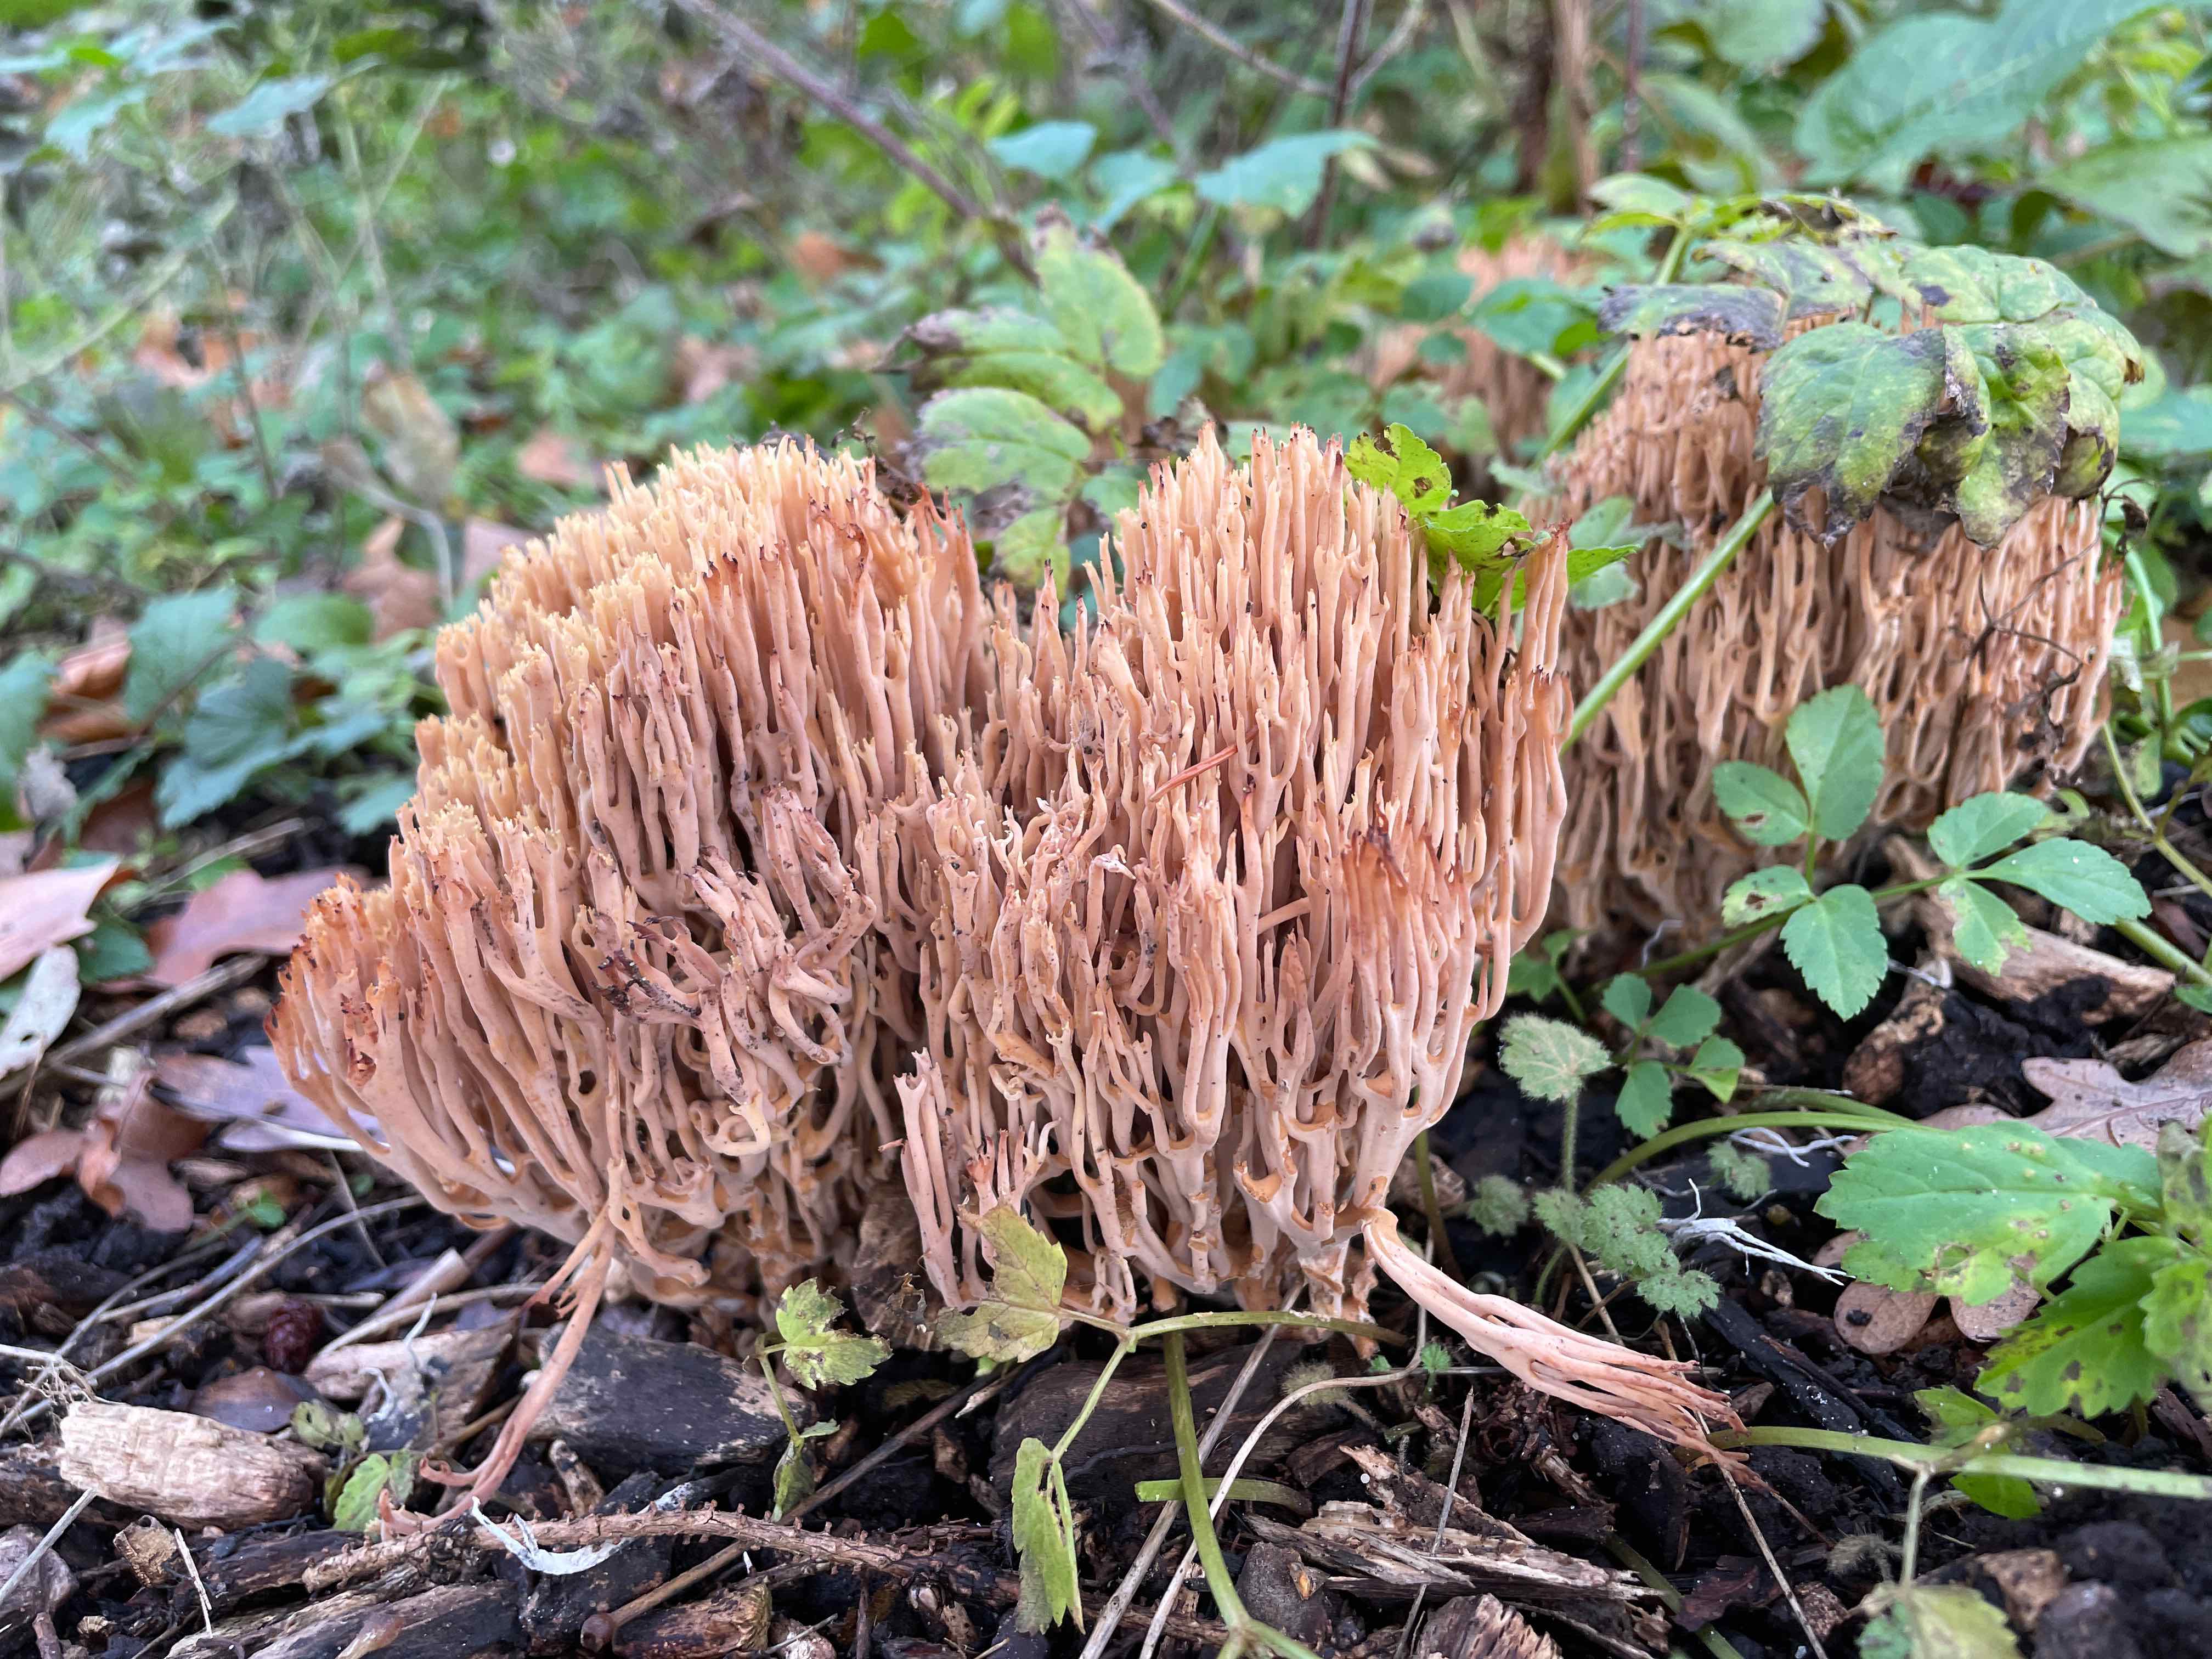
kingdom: Fungi
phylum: Basidiomycota
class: Agaricomycetes
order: Gomphales
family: Gomphaceae
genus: Phaeoclavulina
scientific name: Phaeoclavulina eumorpha
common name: gran-koralsvamp
